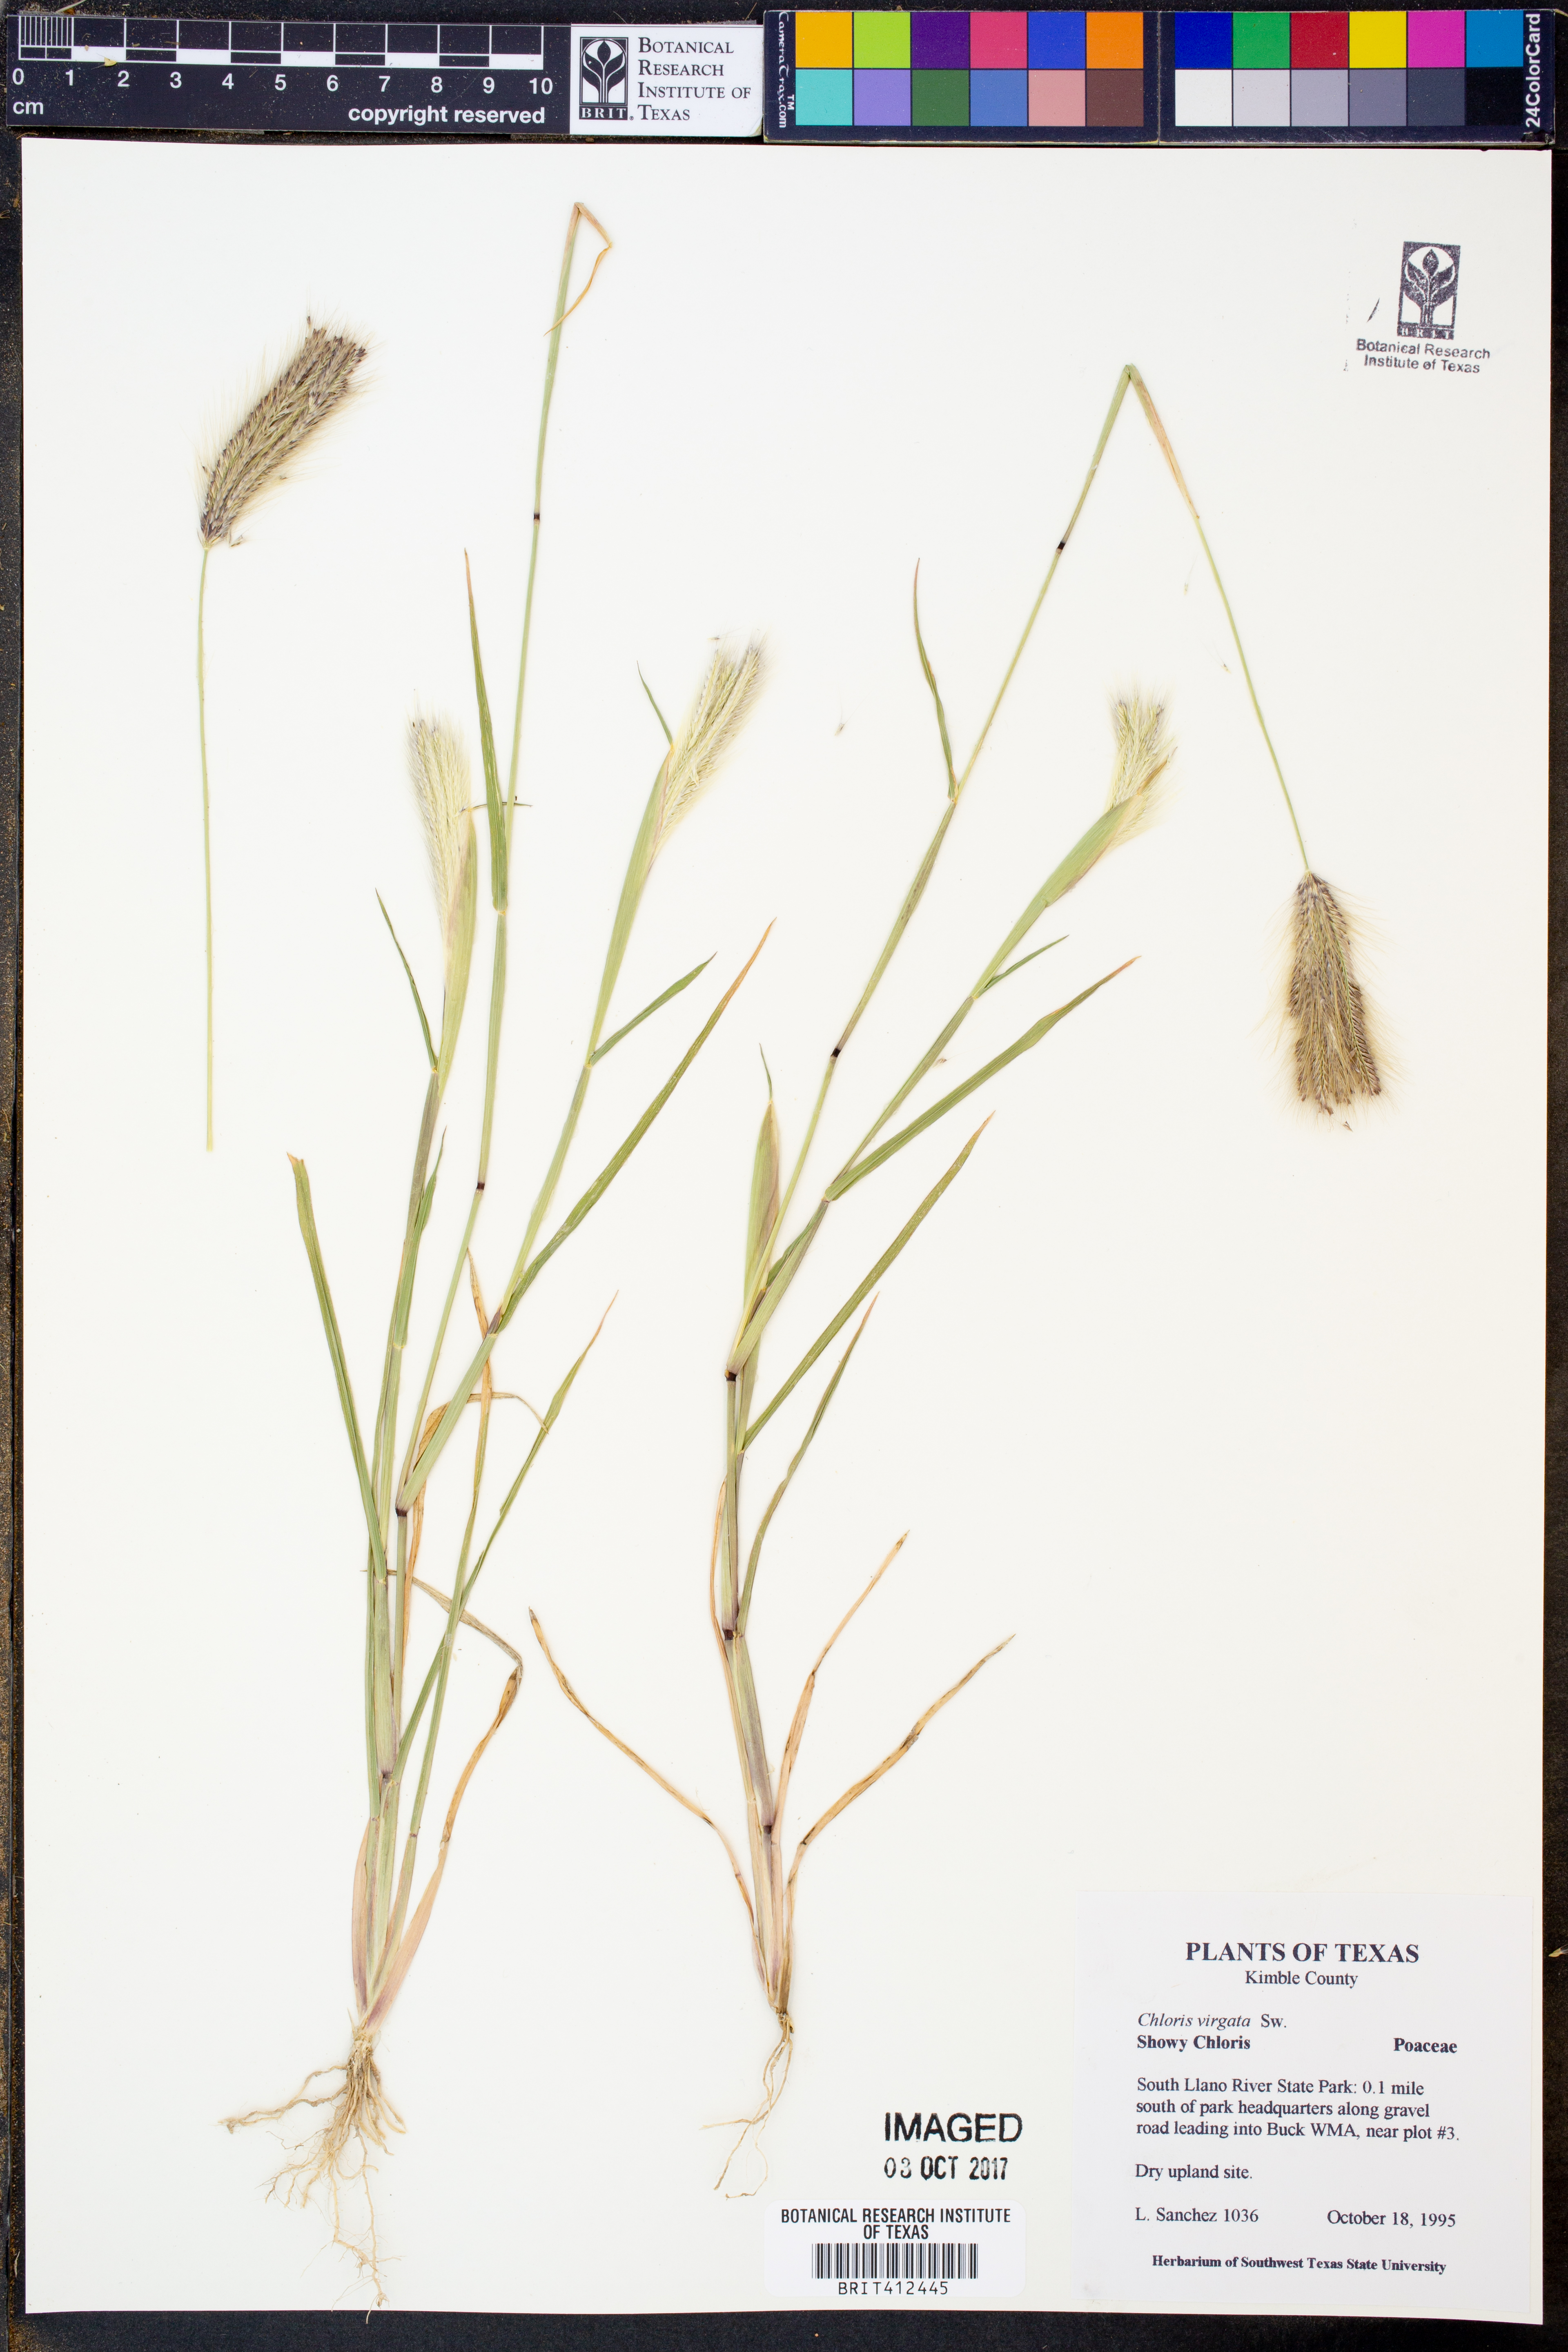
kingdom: Plantae
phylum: Tracheophyta
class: Liliopsida
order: Poales
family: Poaceae
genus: Chloris
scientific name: Chloris virgata
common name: Feathery rhodes-grass
